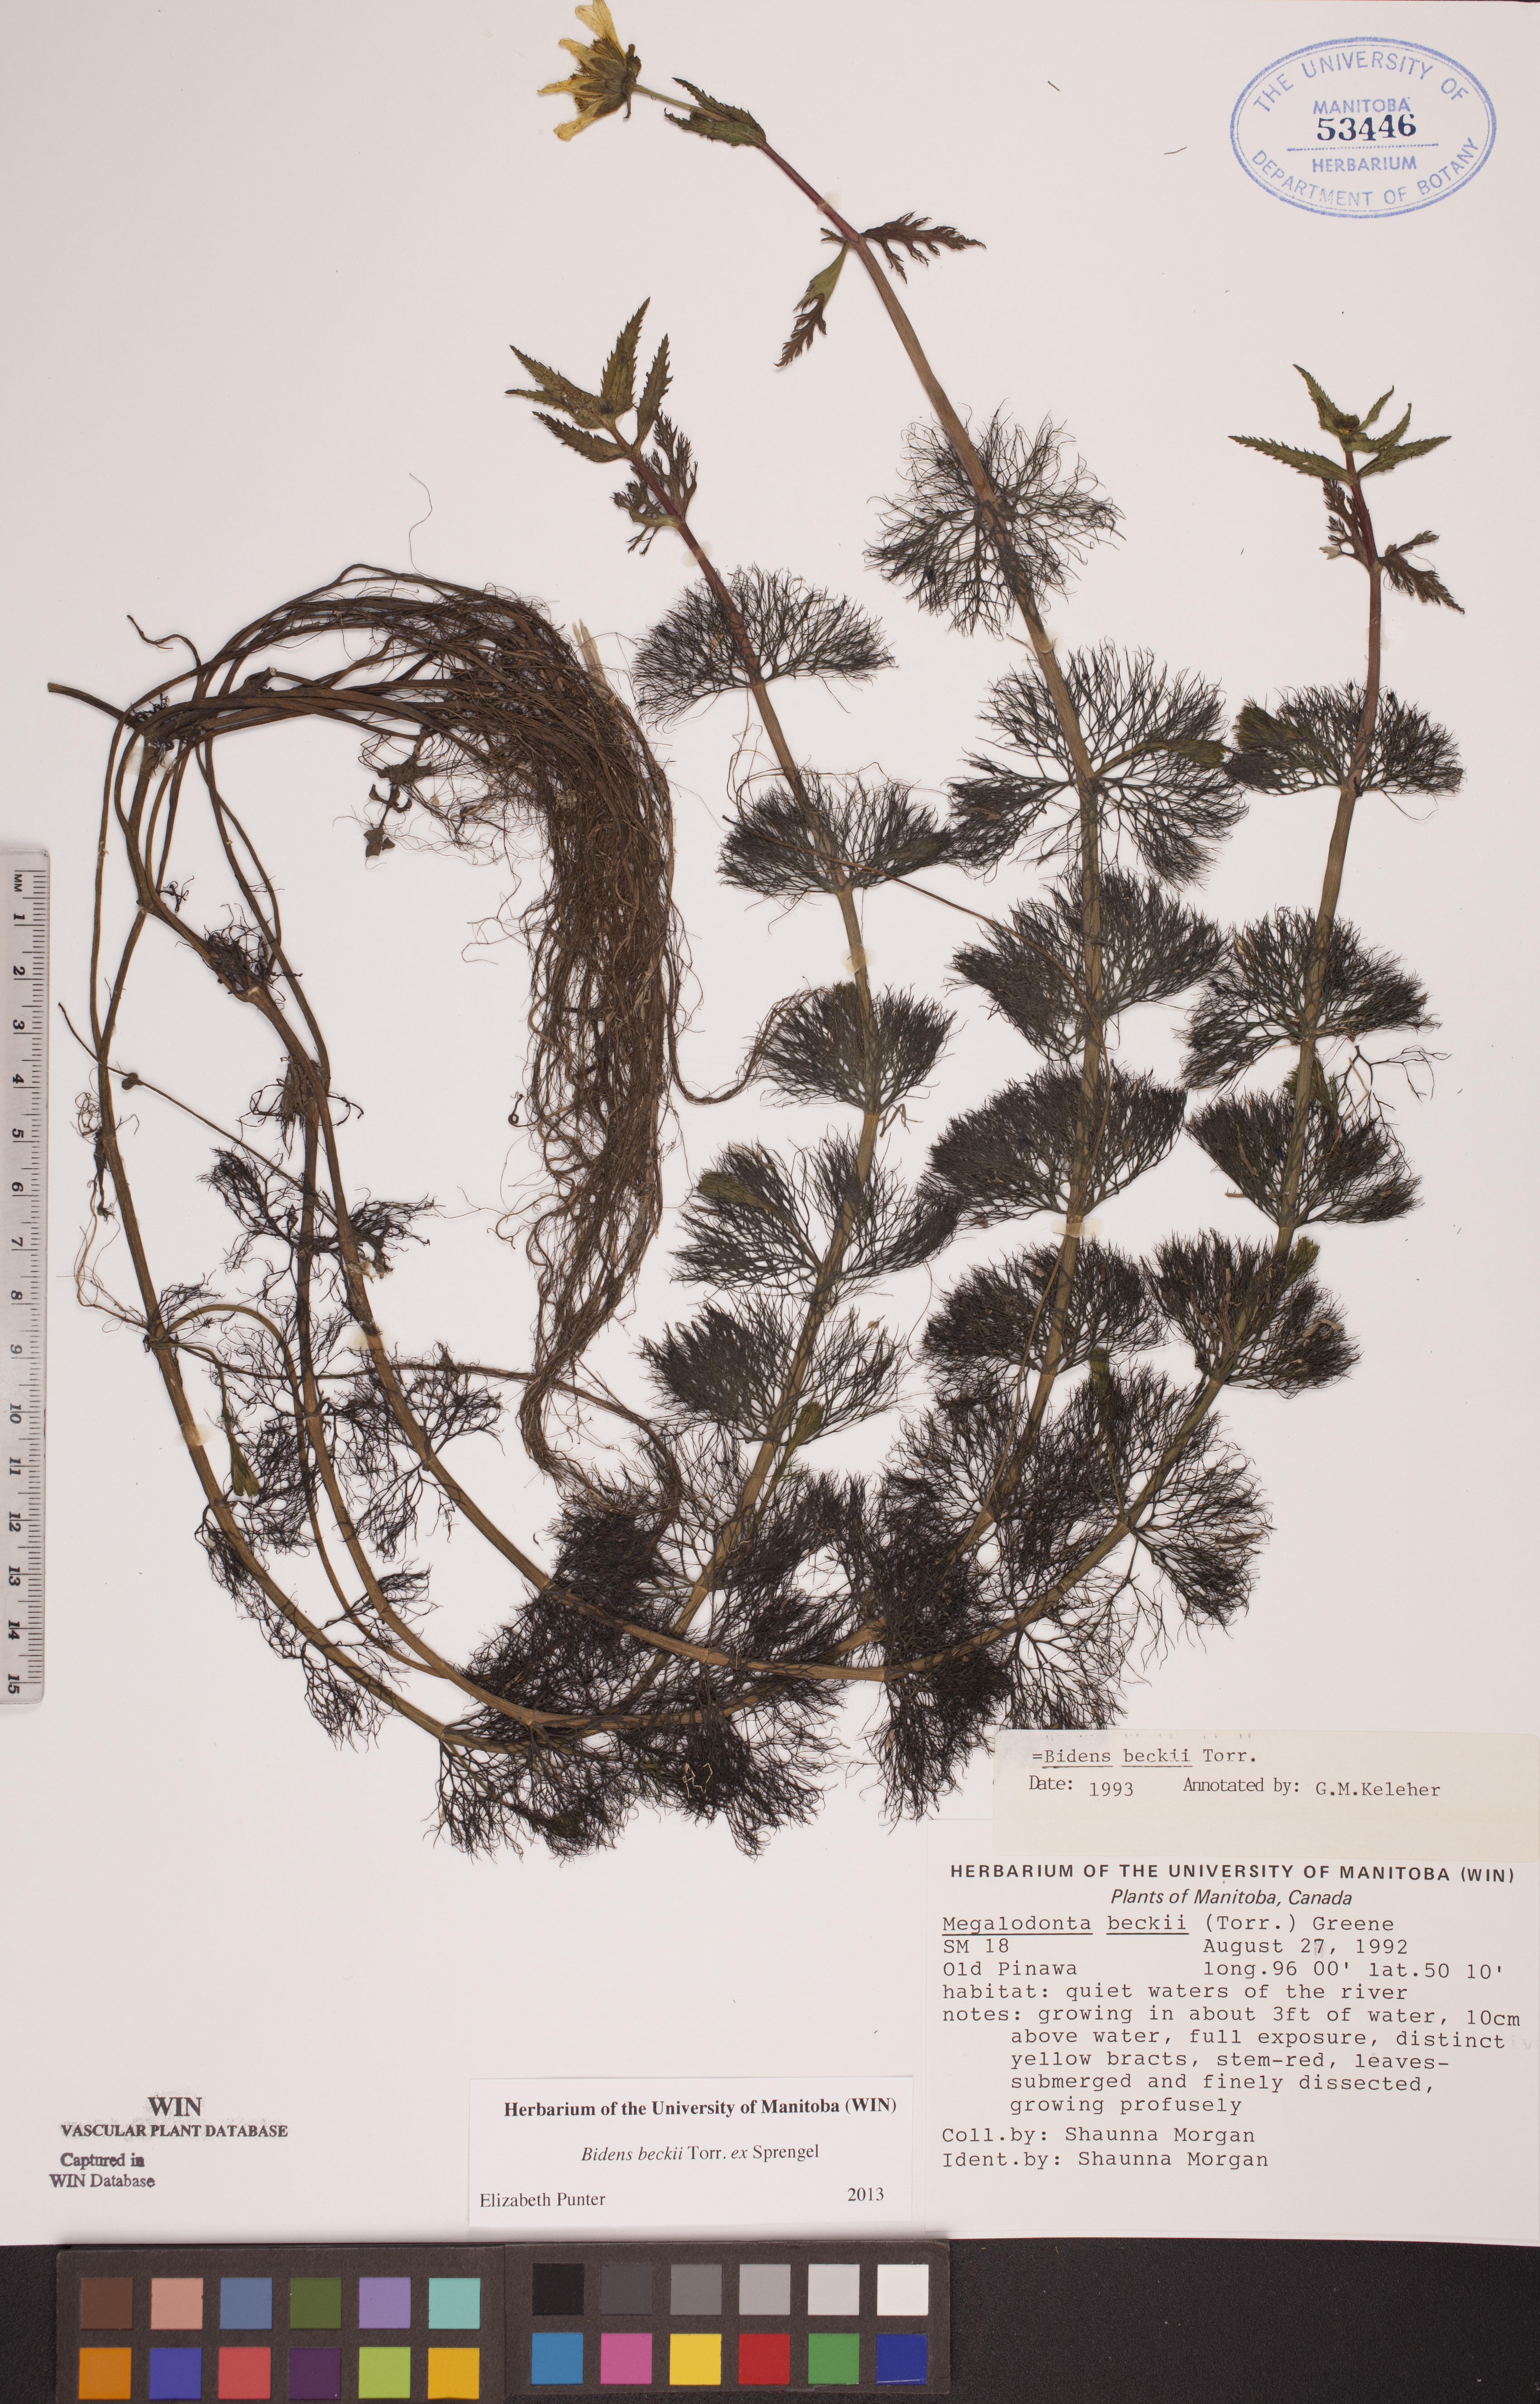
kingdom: Plantae
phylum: Tracheophyta
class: Magnoliopsida
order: Asterales
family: Asteraceae
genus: Bidens
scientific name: Bidens beckii
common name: Beck's beggarticks
